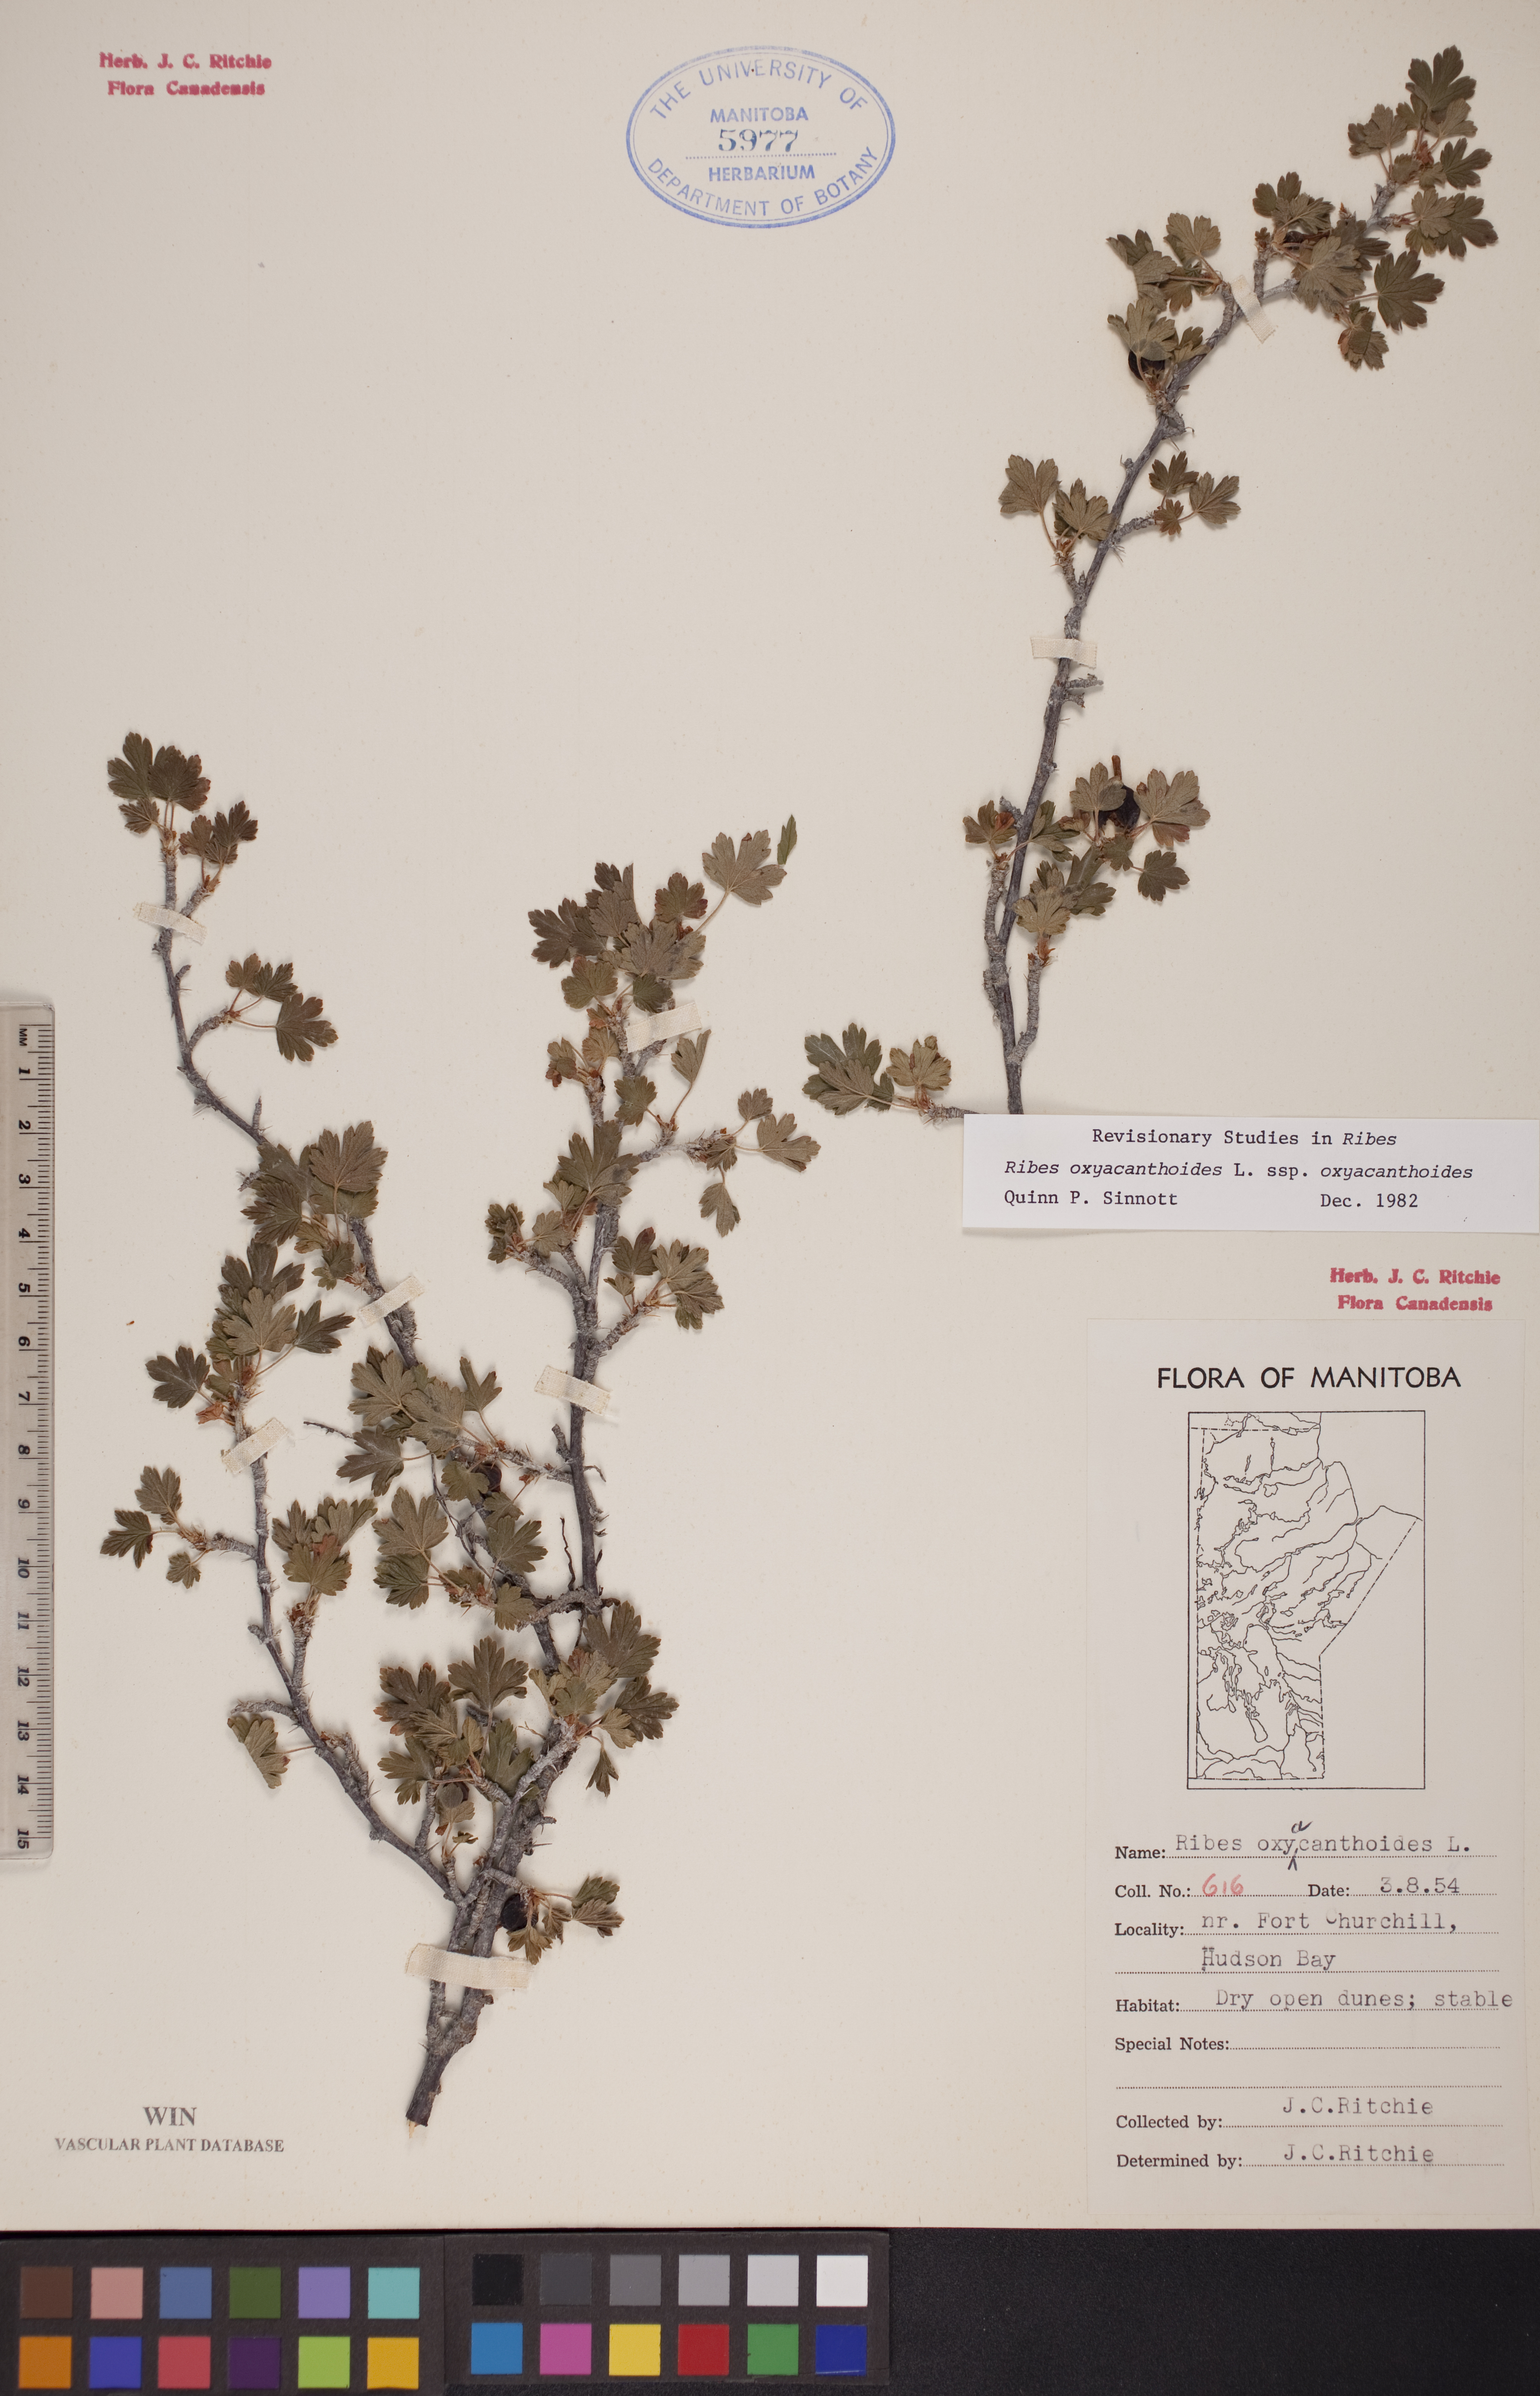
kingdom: Plantae
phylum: Tracheophyta
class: Magnoliopsida
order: Saxifragales
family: Grossulariaceae
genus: Ribes
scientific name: Ribes oxyacanthoides
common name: Northern gooseberry
